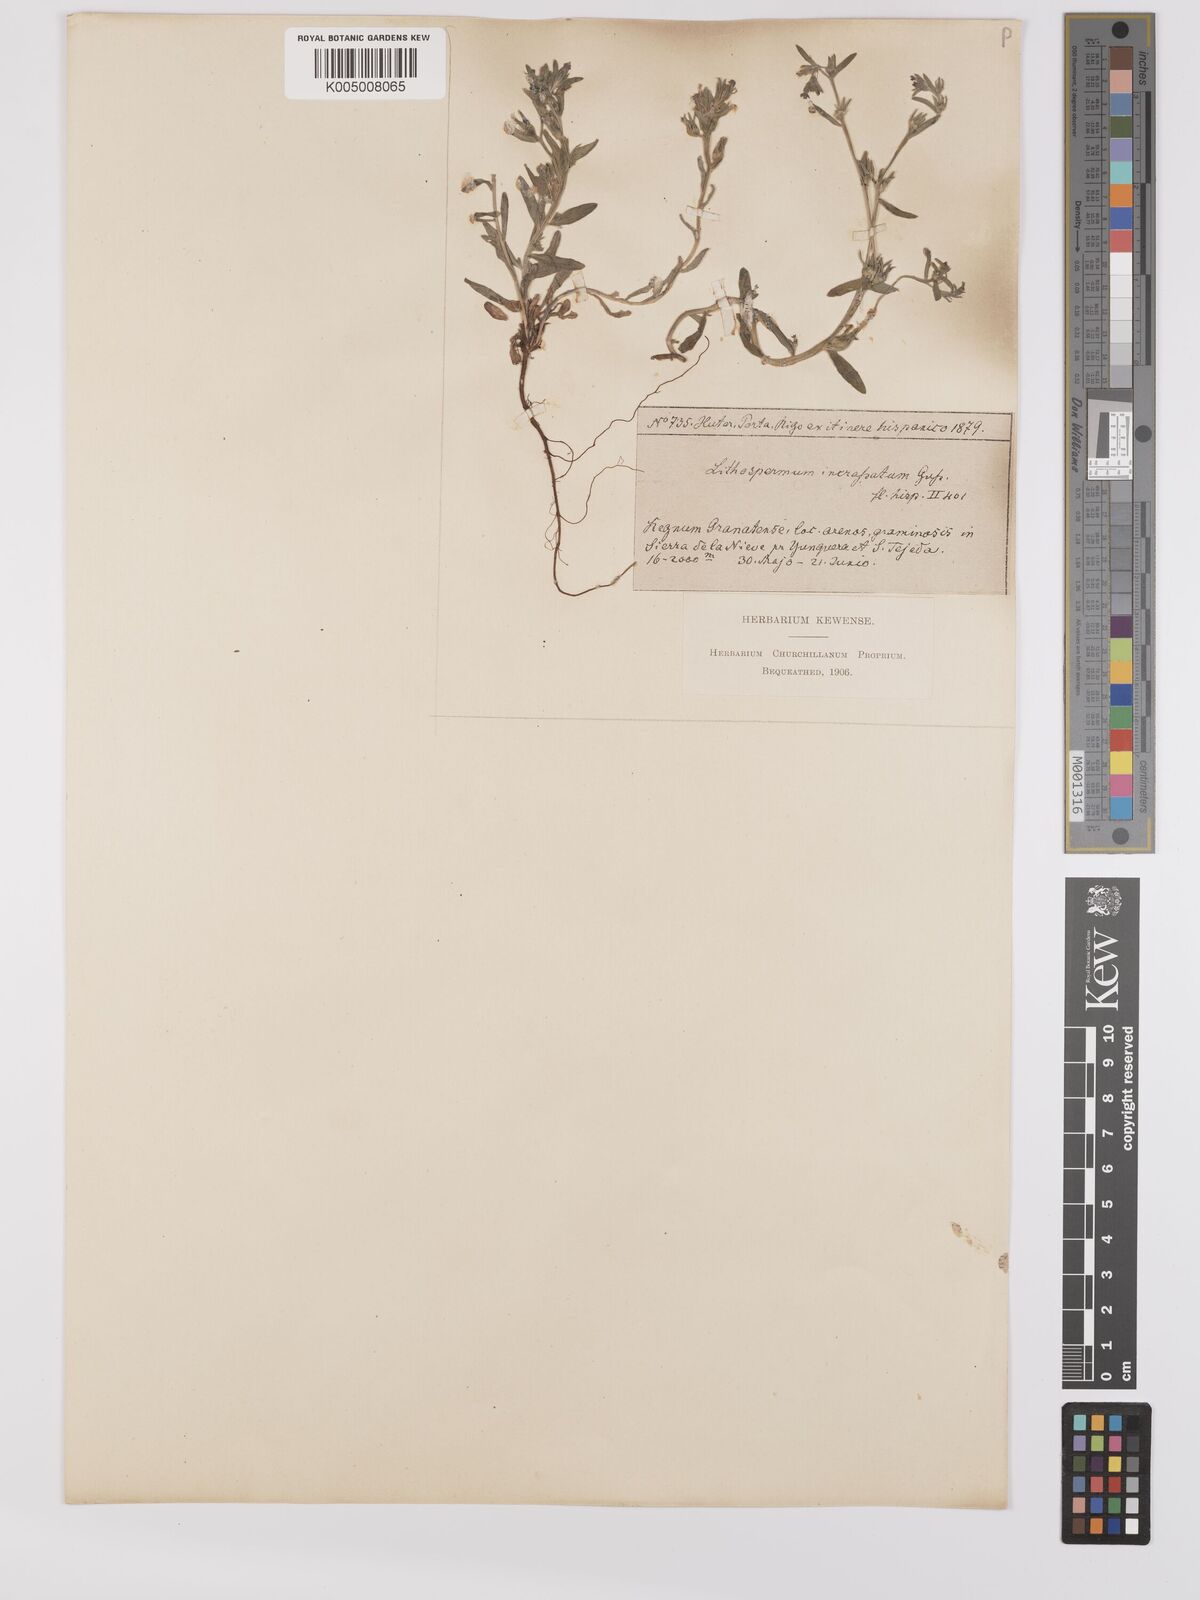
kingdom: Plantae
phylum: Tracheophyta
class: Magnoliopsida
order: Boraginales
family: Boraginaceae
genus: Buglossoides
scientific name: Buglossoides incrassata
